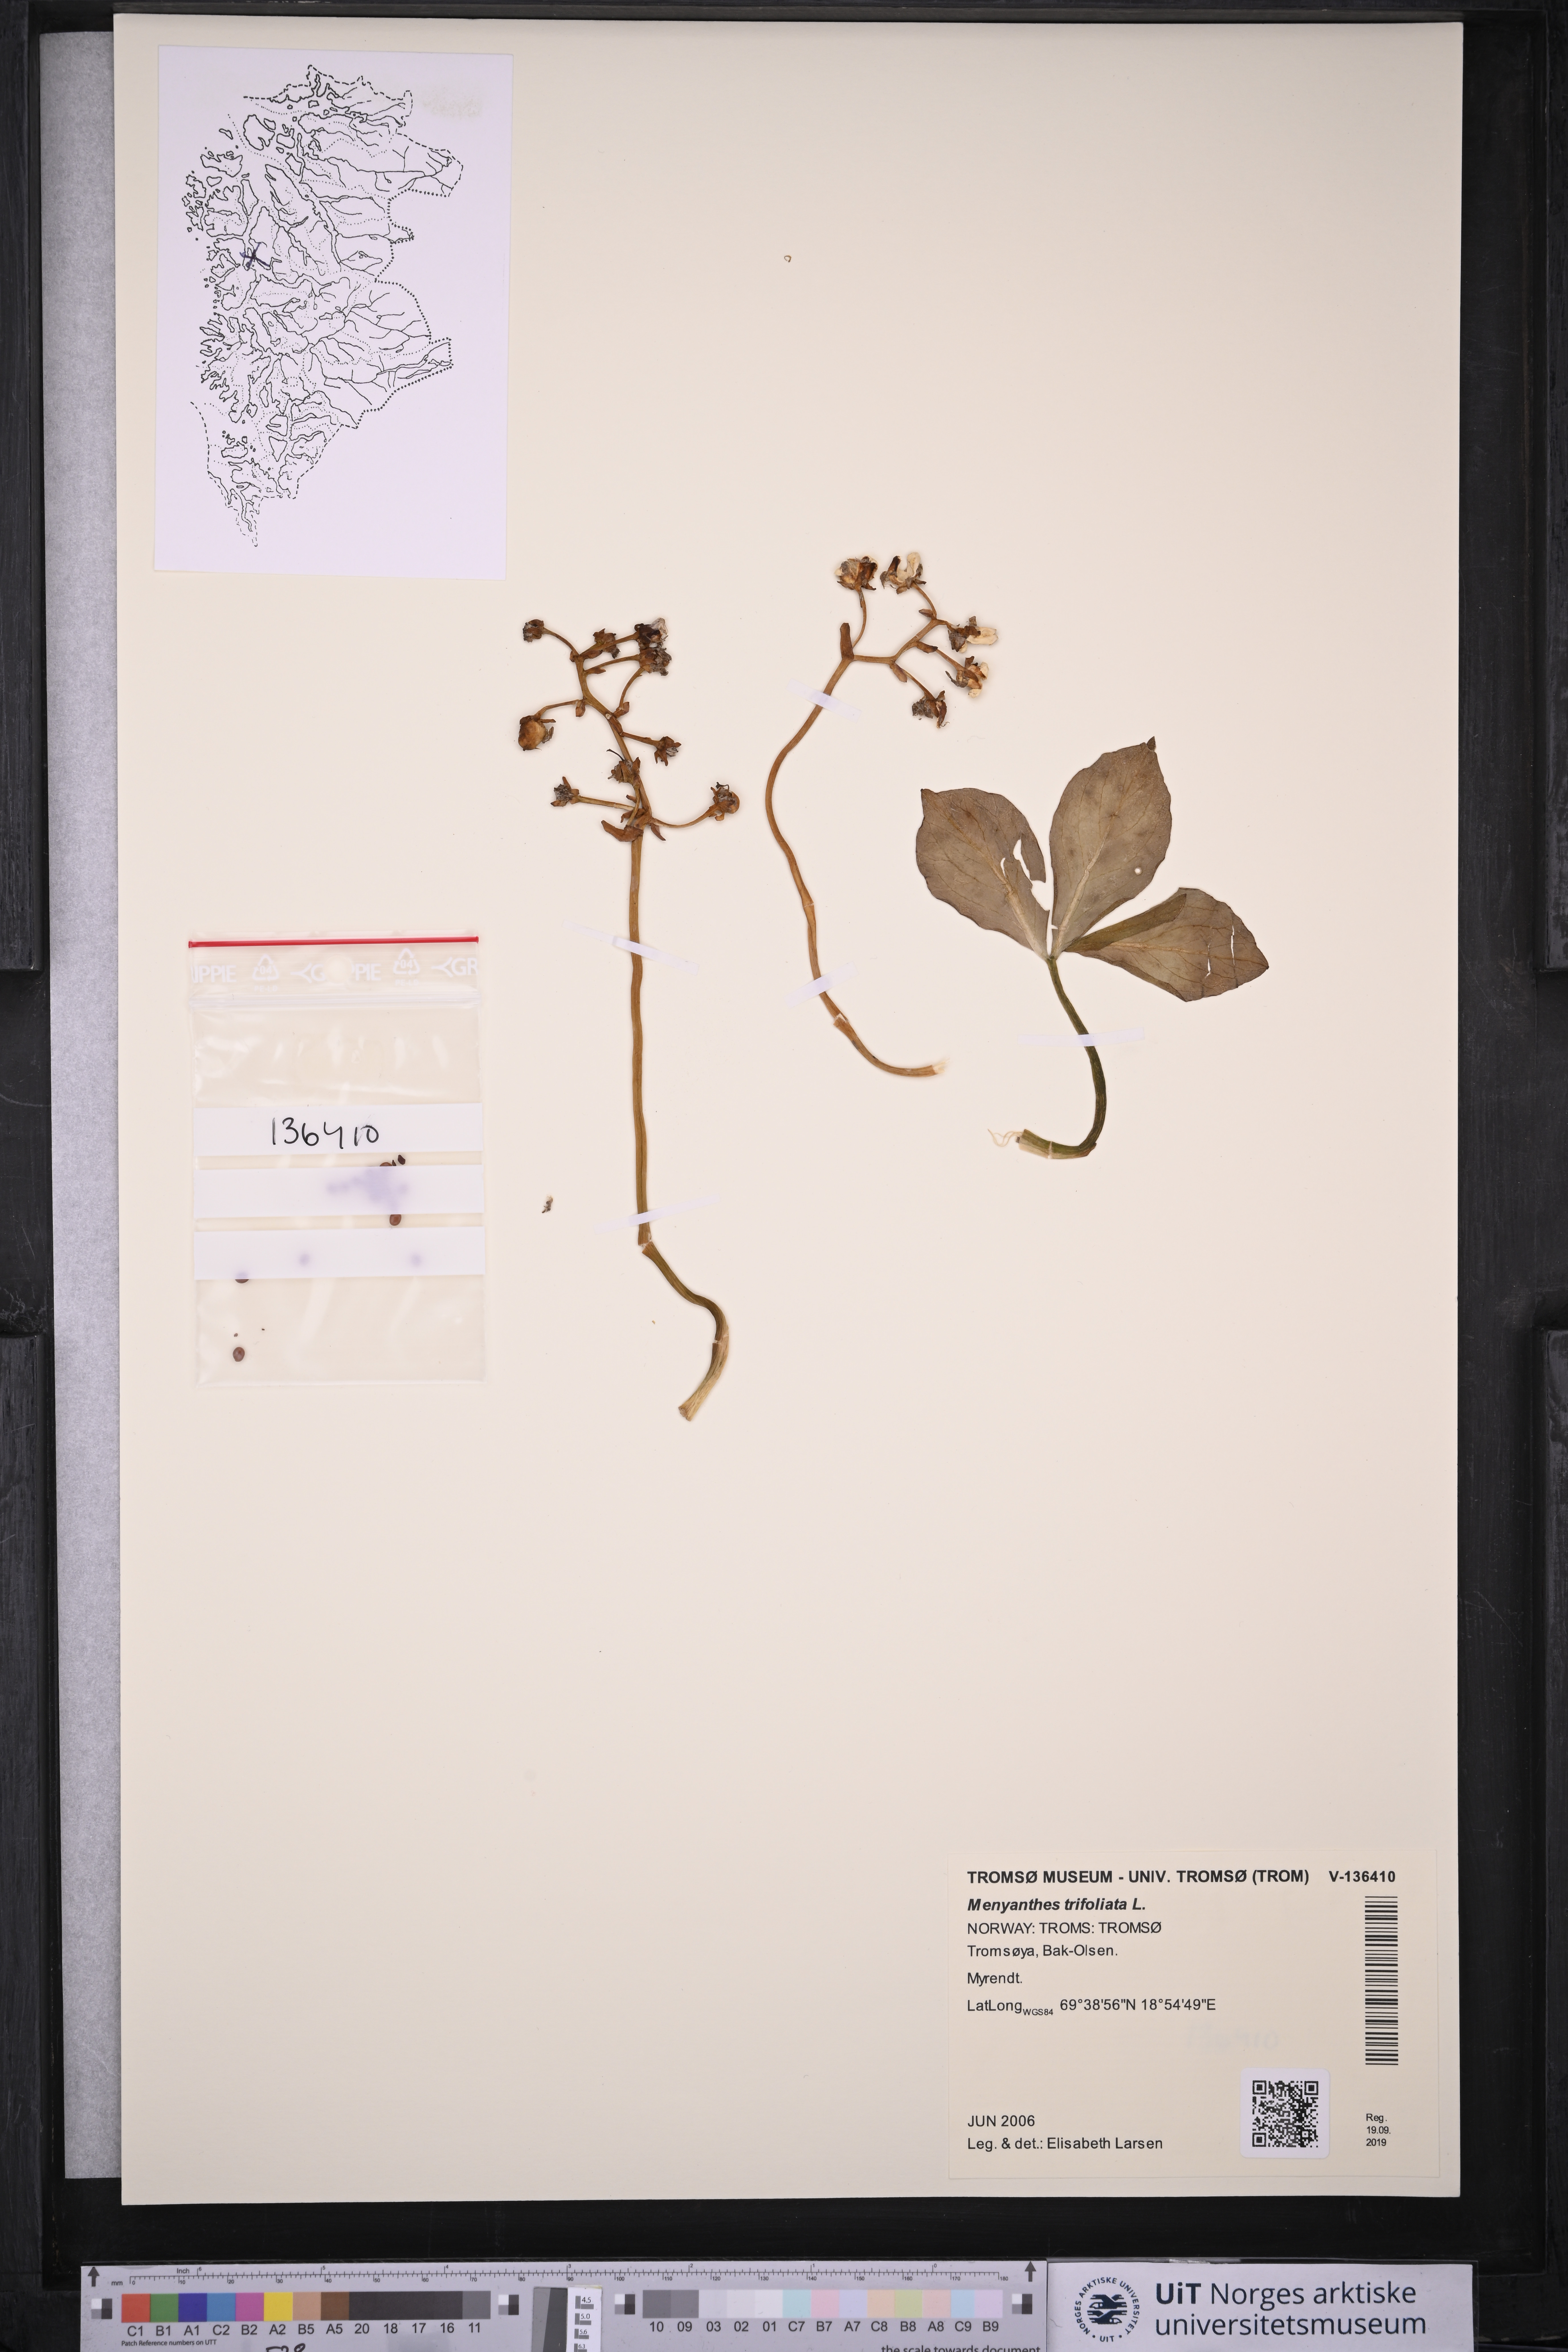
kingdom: Plantae
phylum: Tracheophyta
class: Magnoliopsida
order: Asterales
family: Menyanthaceae
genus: Menyanthes
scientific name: Menyanthes trifoliata
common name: Bogbean
